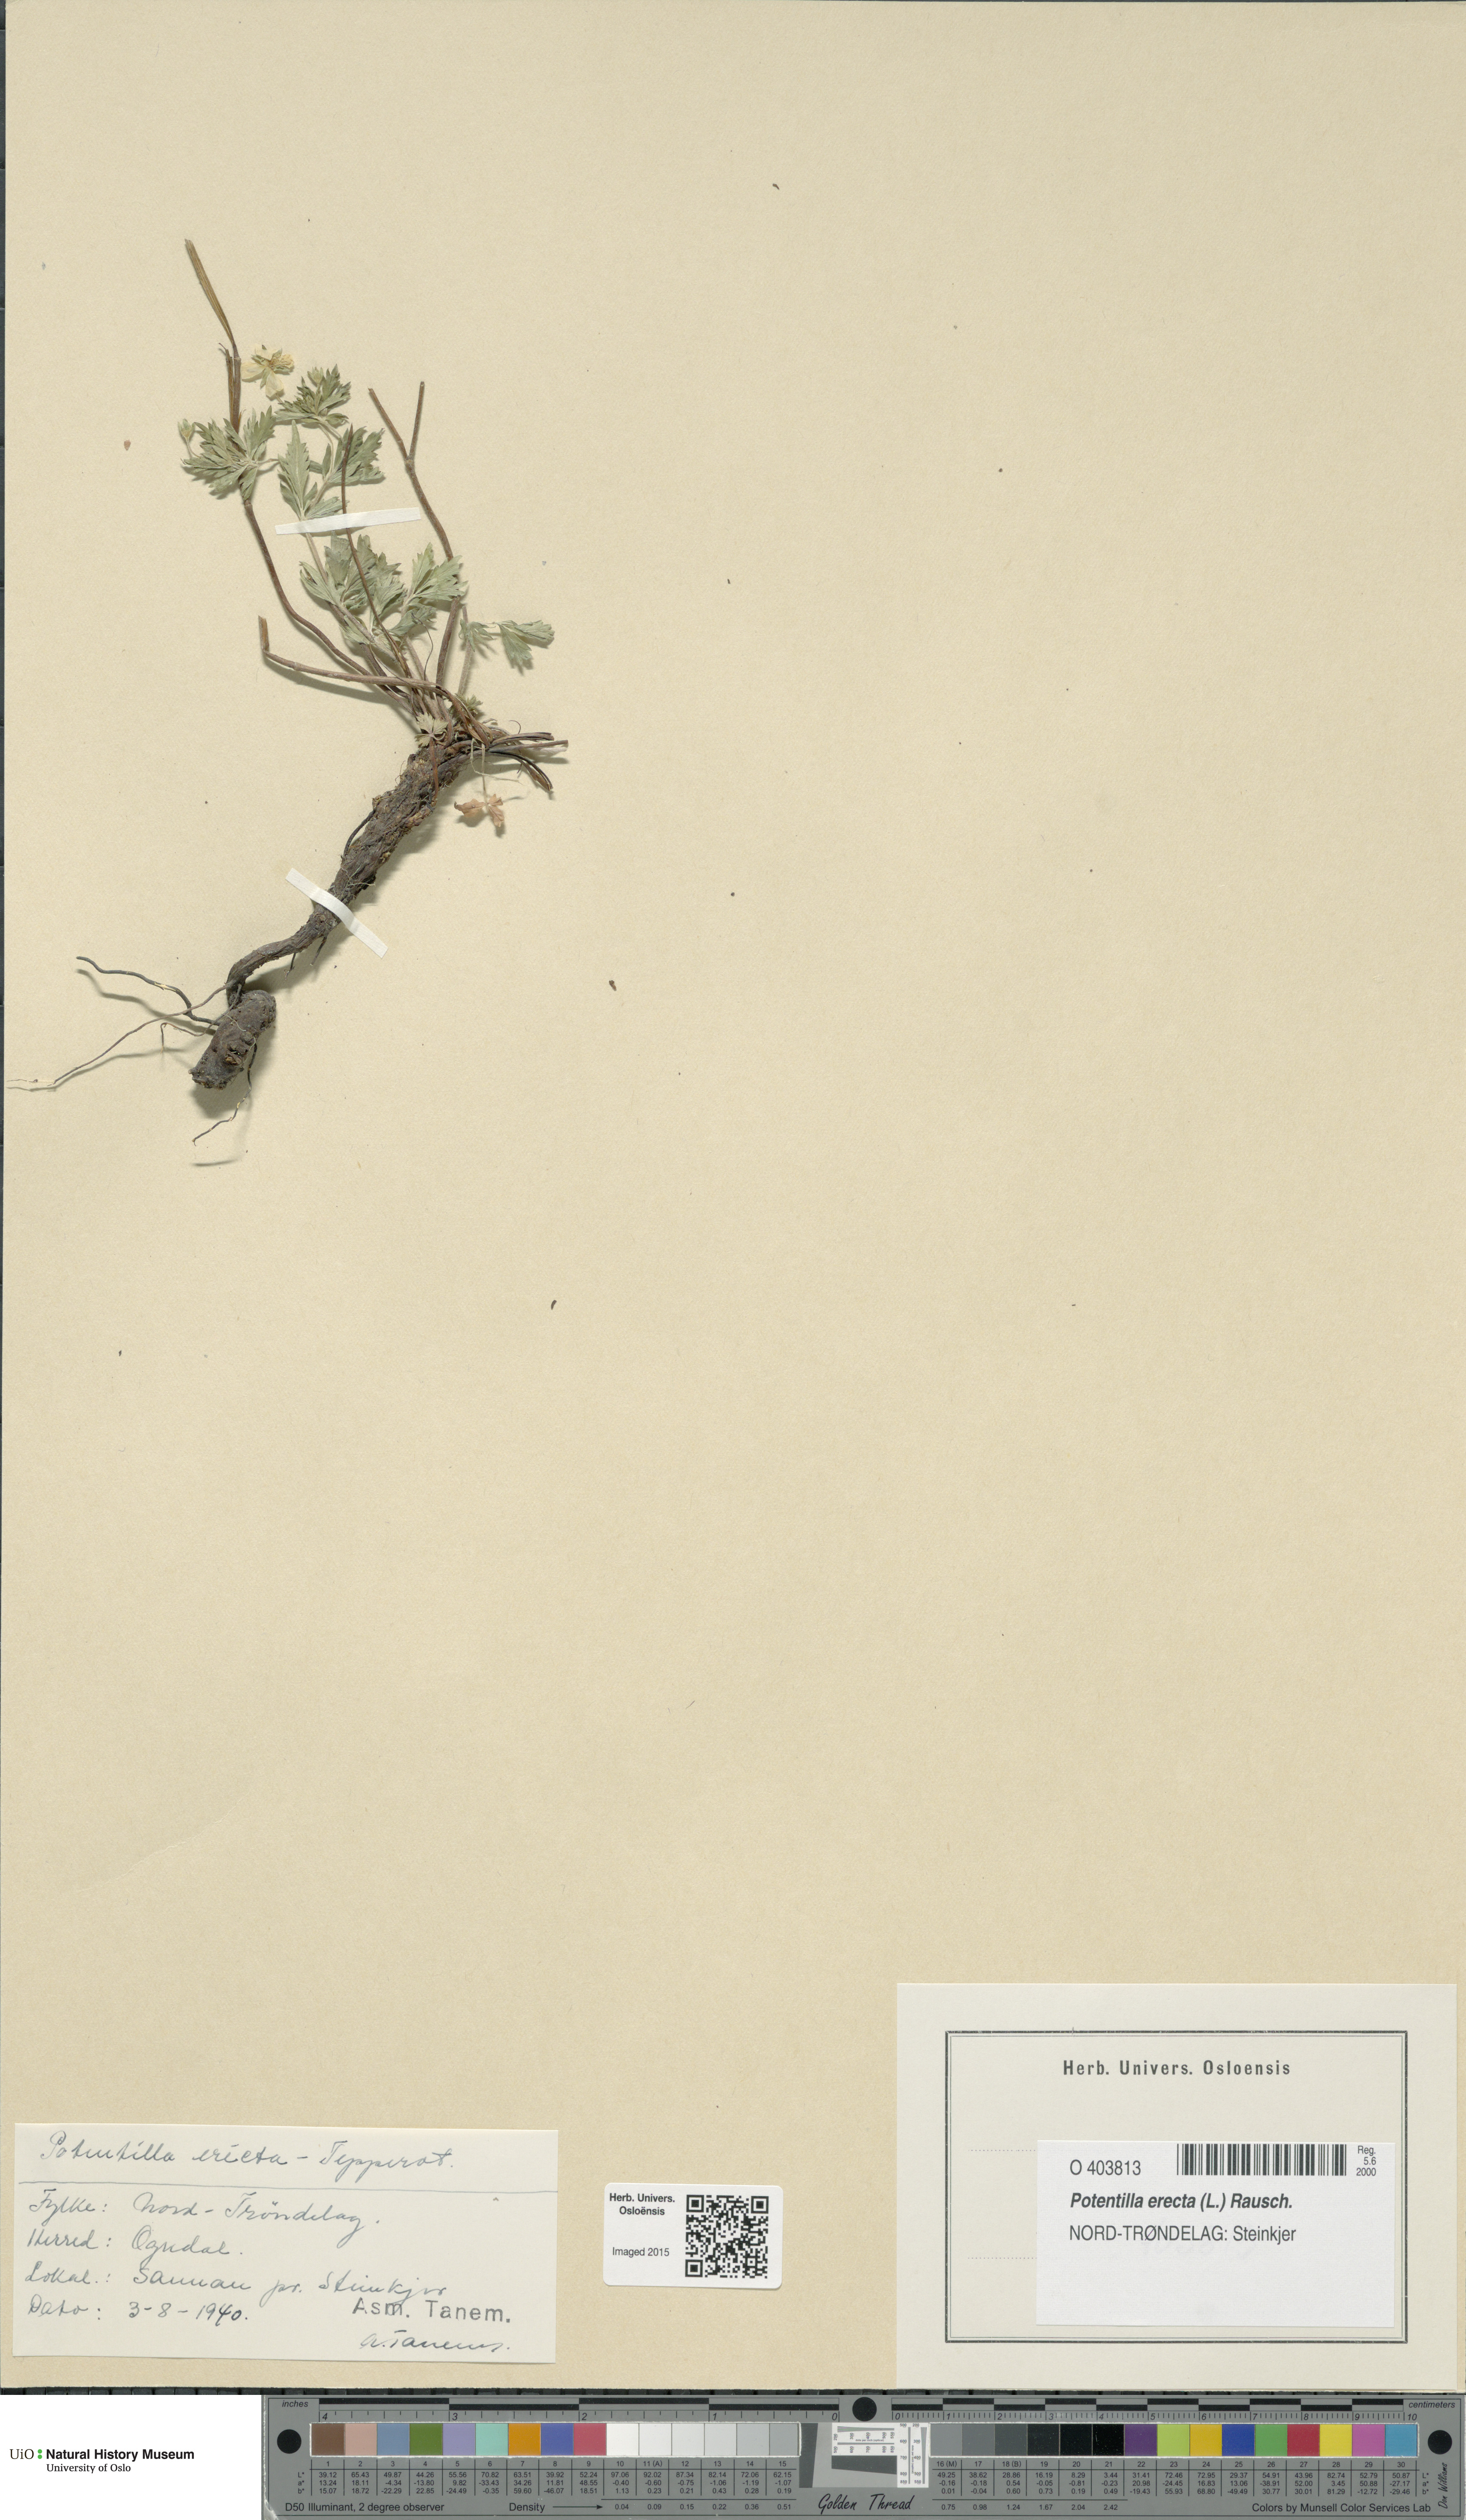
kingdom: Plantae
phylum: Tracheophyta
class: Magnoliopsida
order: Rosales
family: Rosaceae
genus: Potentilla
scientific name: Potentilla erecta
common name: Tormentil
